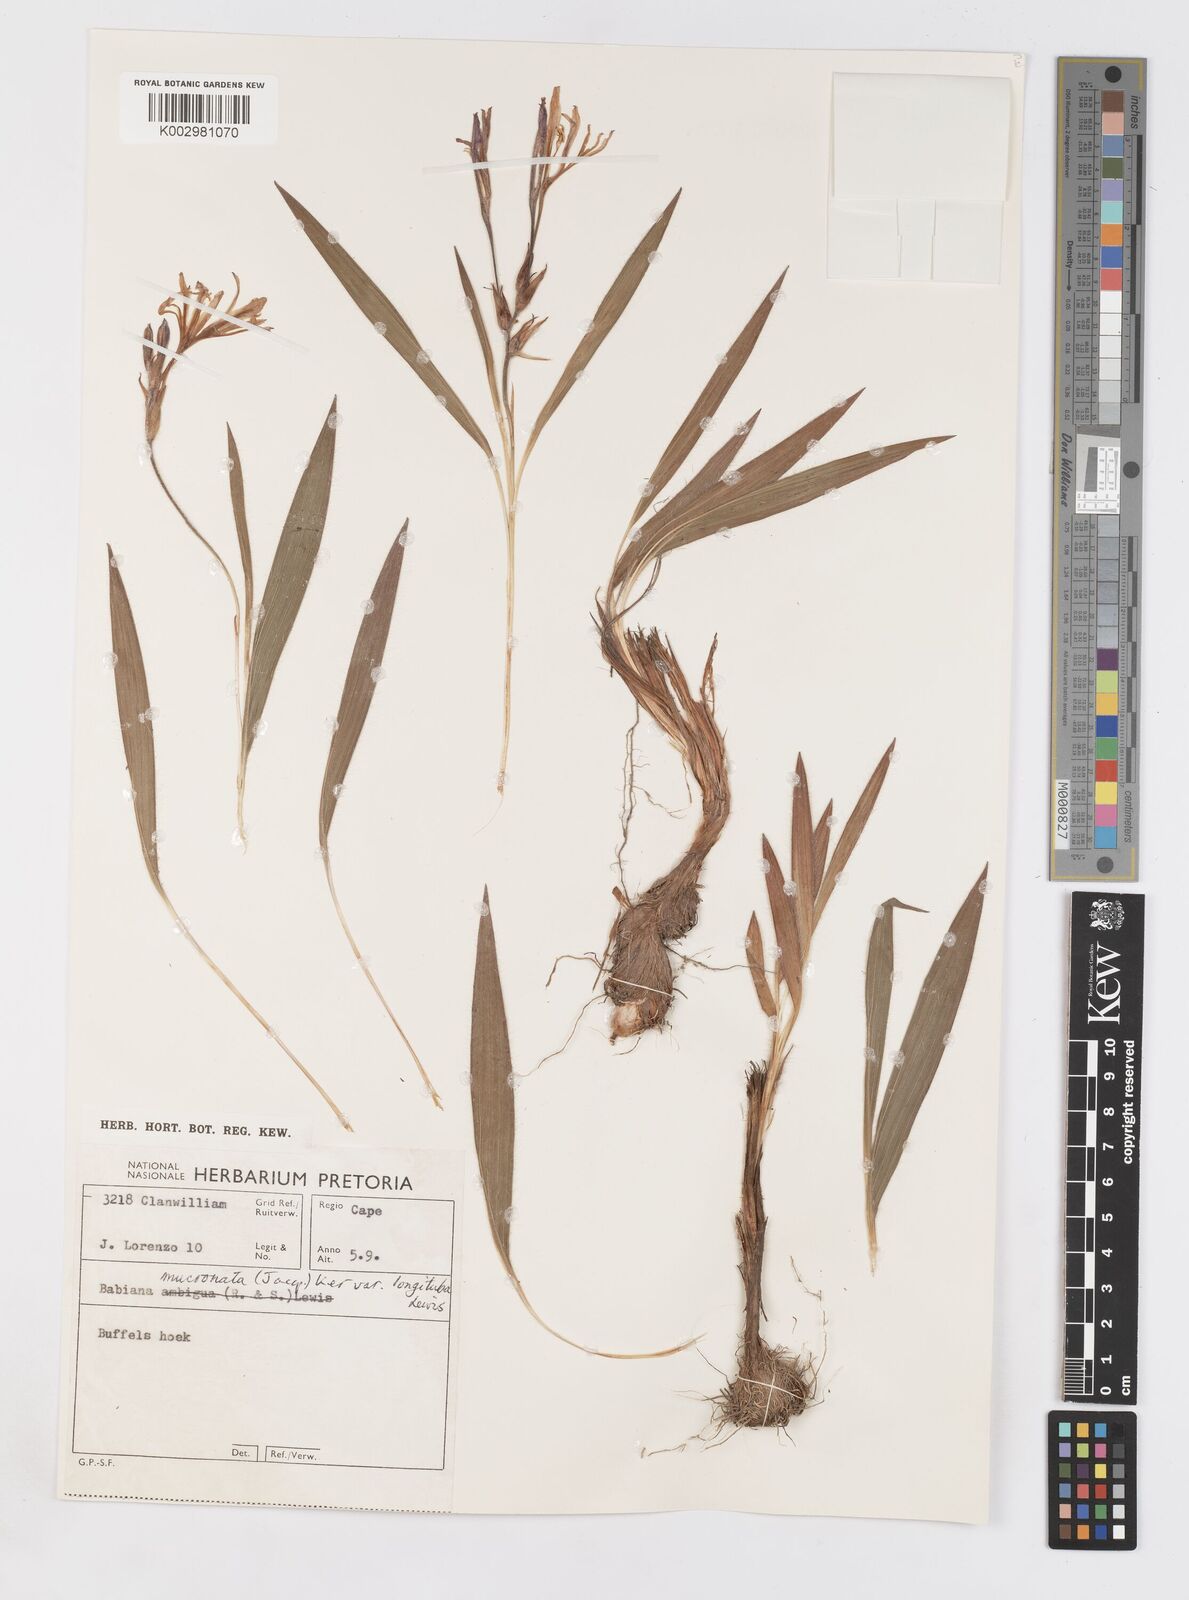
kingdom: Plantae
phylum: Tracheophyta
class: Liliopsida
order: Asparagales
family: Iridaceae
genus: Babiana
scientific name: Babiana mucronata
